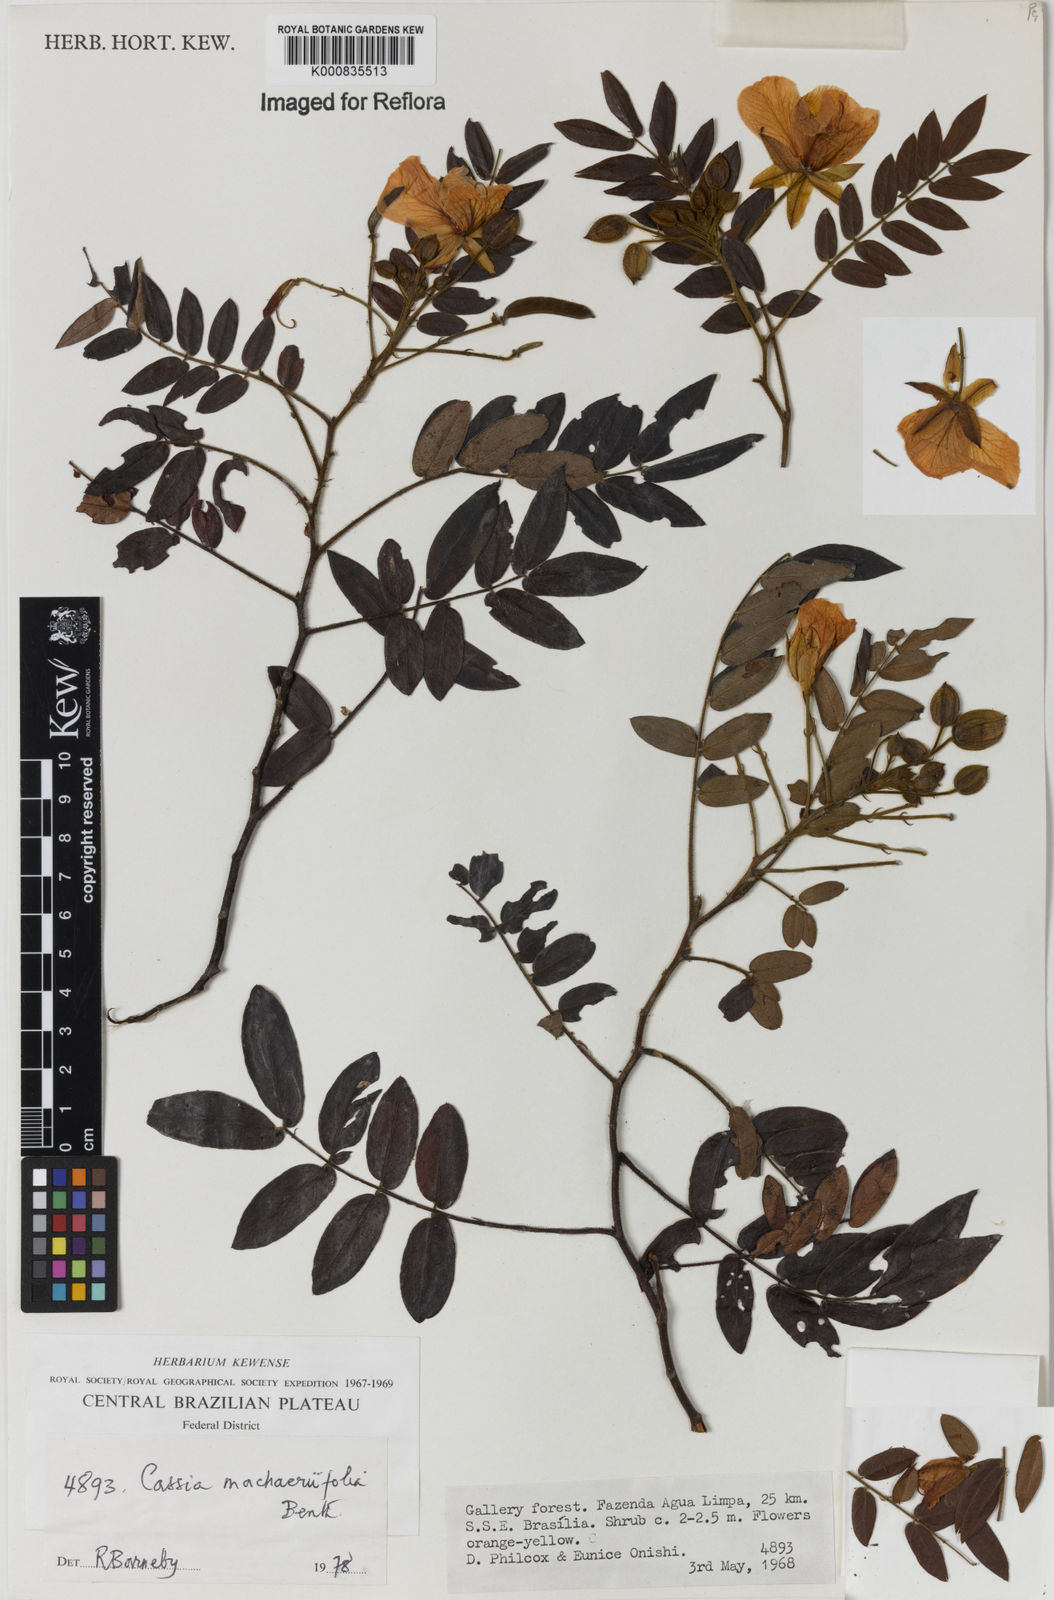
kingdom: Plantae
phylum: Tracheophyta
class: Magnoliopsida
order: Fabales
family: Fabaceae
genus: Chamaecrista
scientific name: Chamaecrista machaeriifolia
